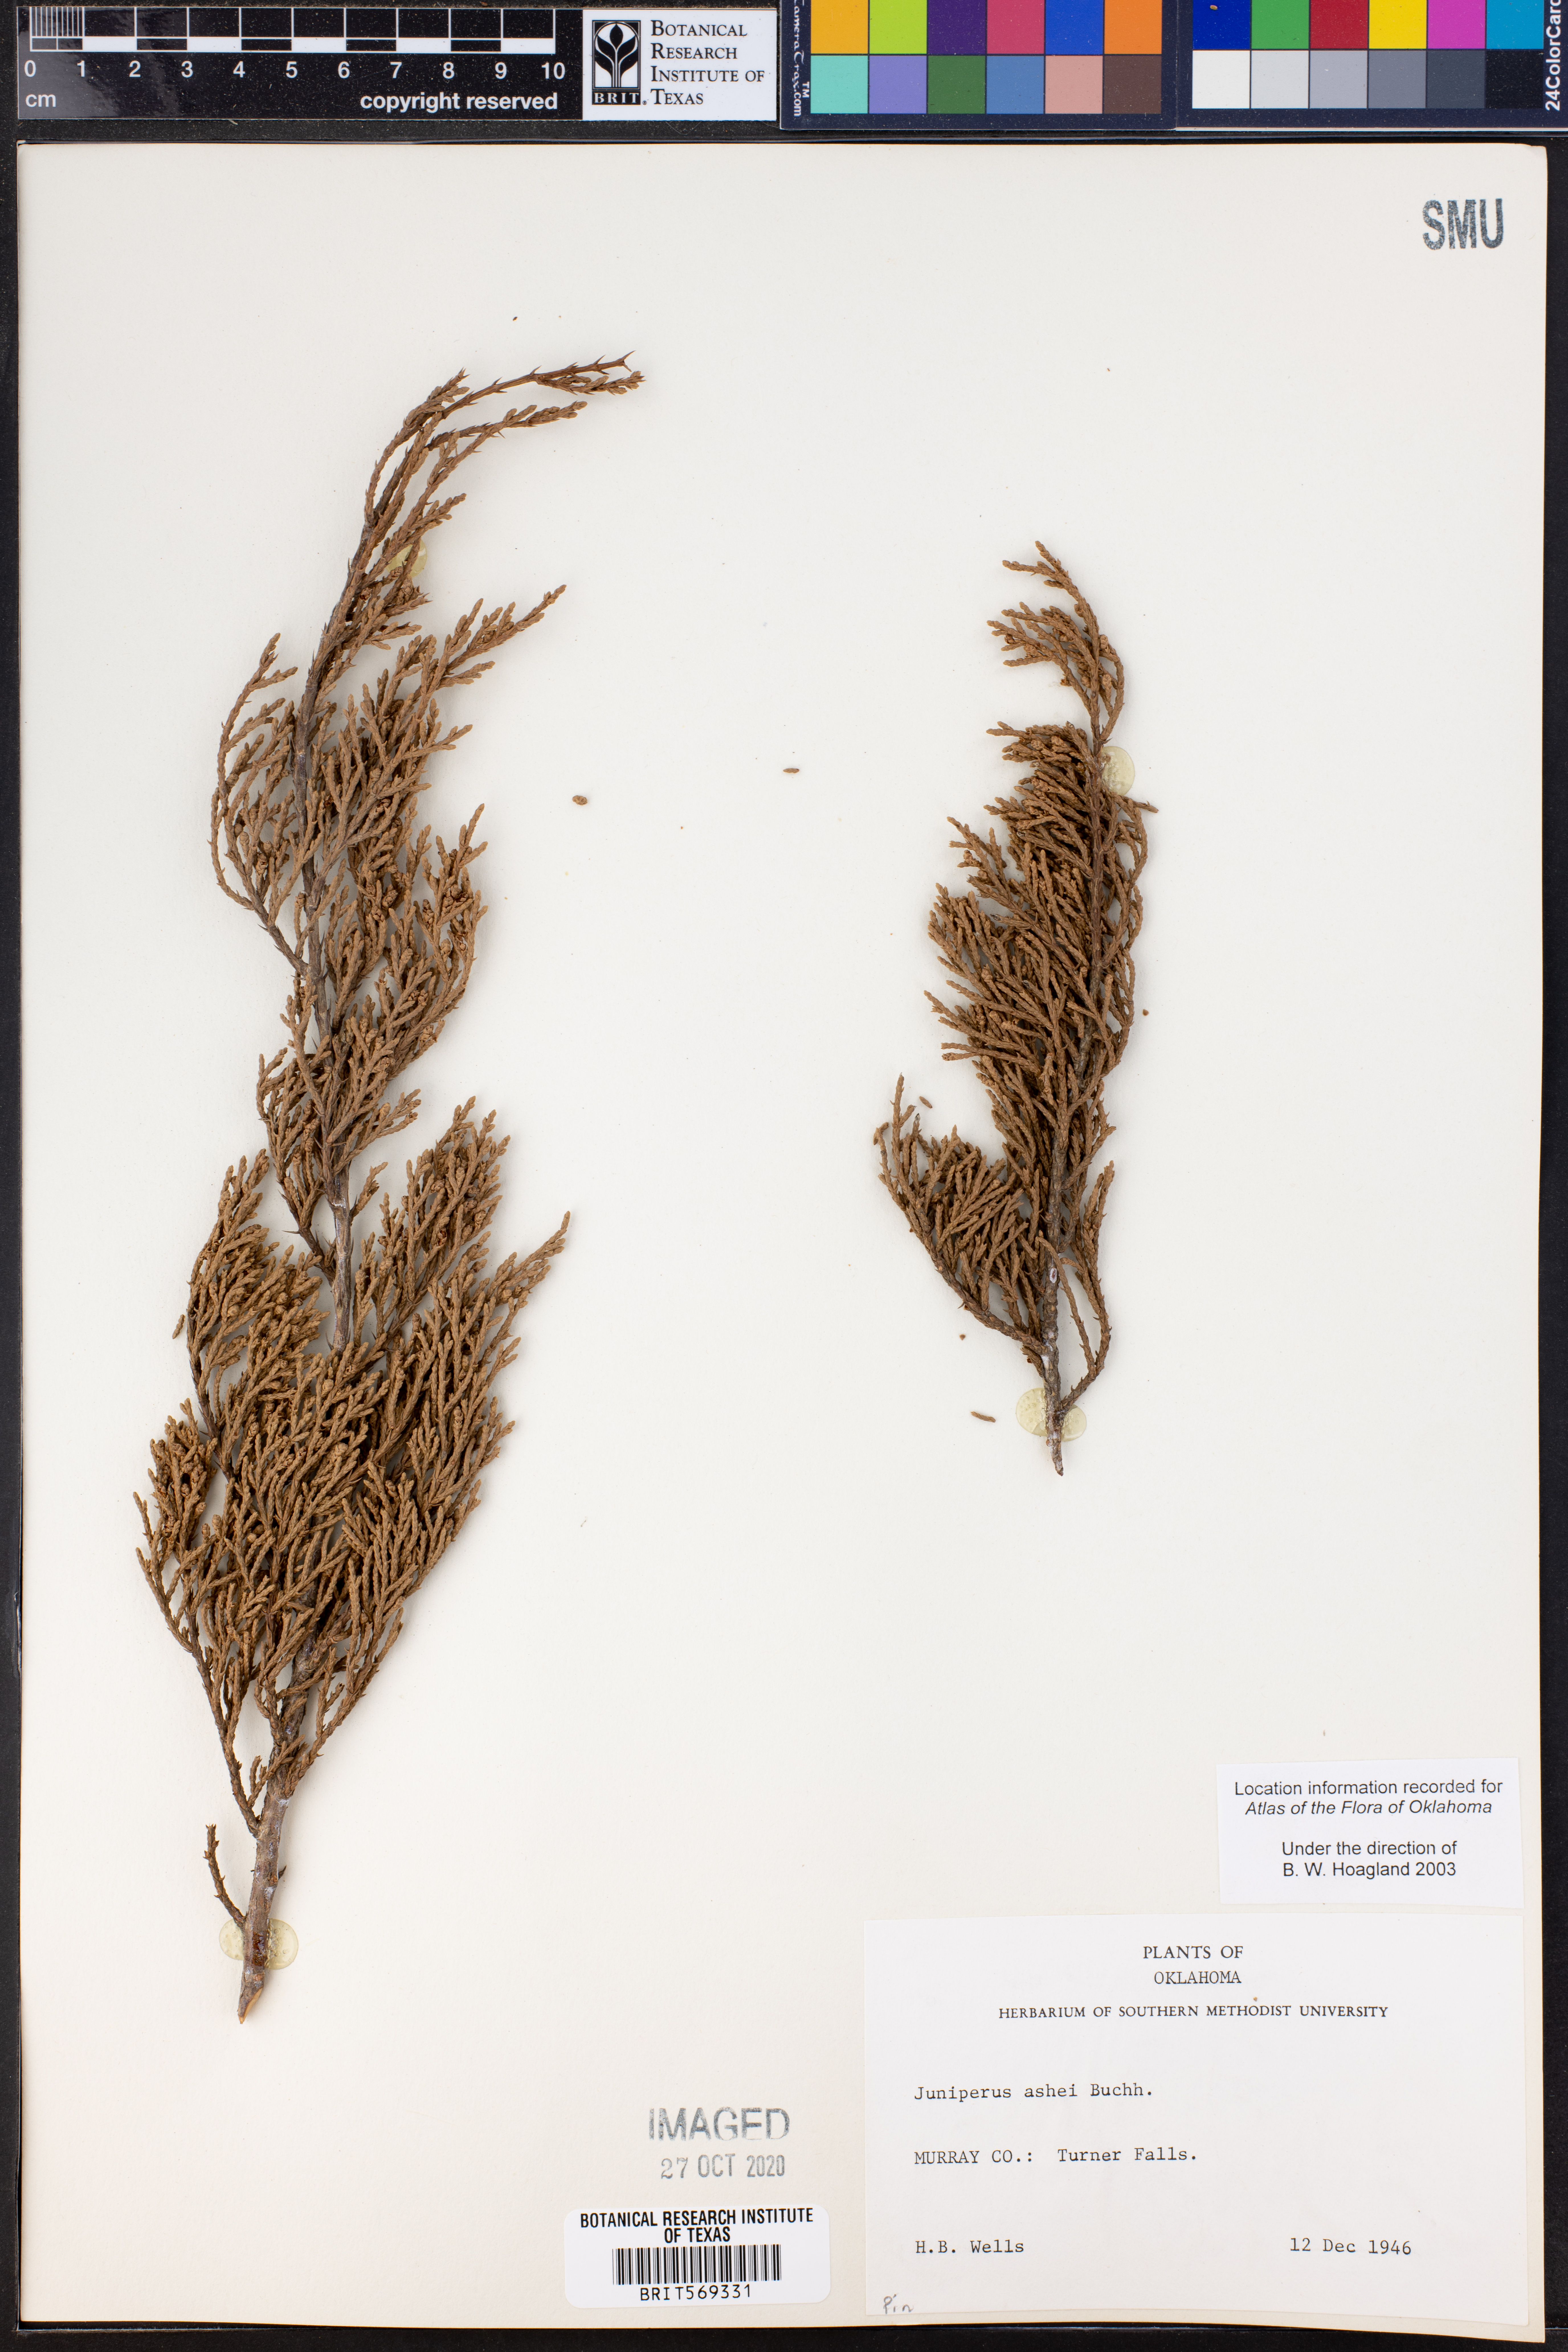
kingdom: Plantae
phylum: Tracheophyta
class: Pinopsida
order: Pinales
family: Cupressaceae
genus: Juniperus
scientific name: Juniperus ashei
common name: Mexican juniper
